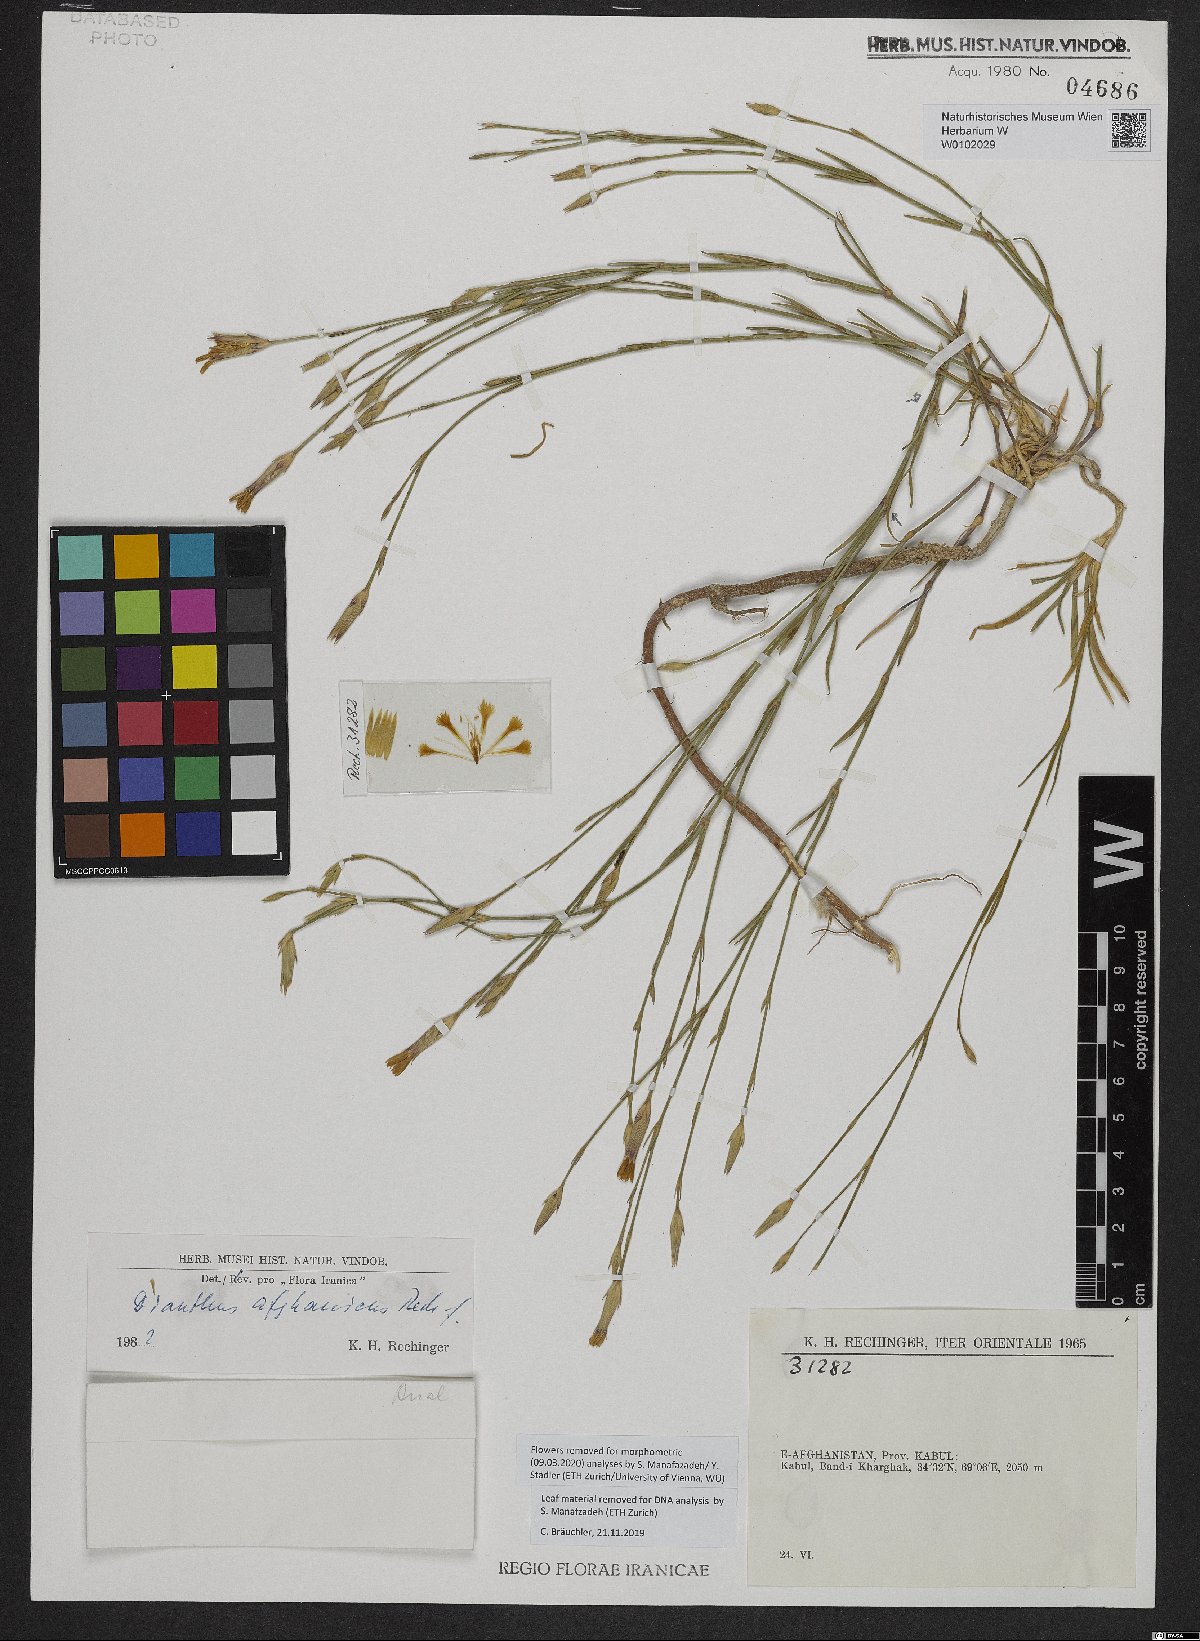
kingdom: Plantae
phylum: Tracheophyta
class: Magnoliopsida
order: Caryophyllales
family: Caryophyllaceae
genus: Dianthus
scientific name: Dianthus afghanicus
